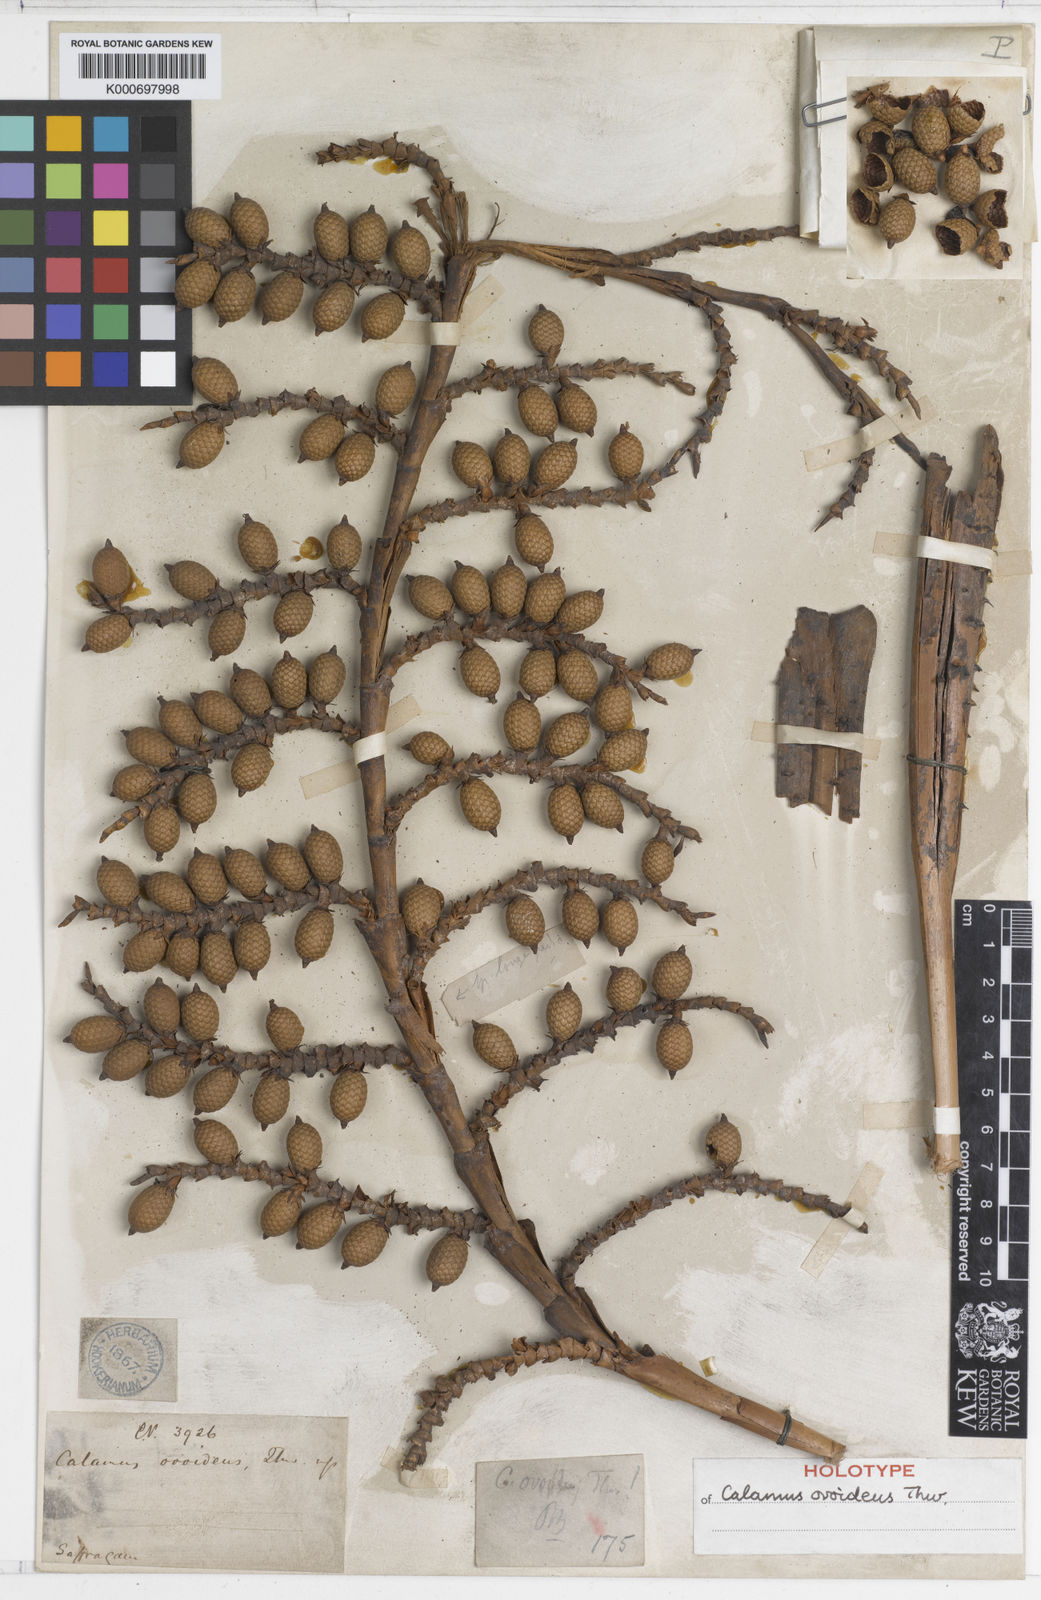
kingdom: Plantae
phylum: Tracheophyta
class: Liliopsida
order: Arecales
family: Arecaceae
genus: Calamus
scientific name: Calamus ovoideus
